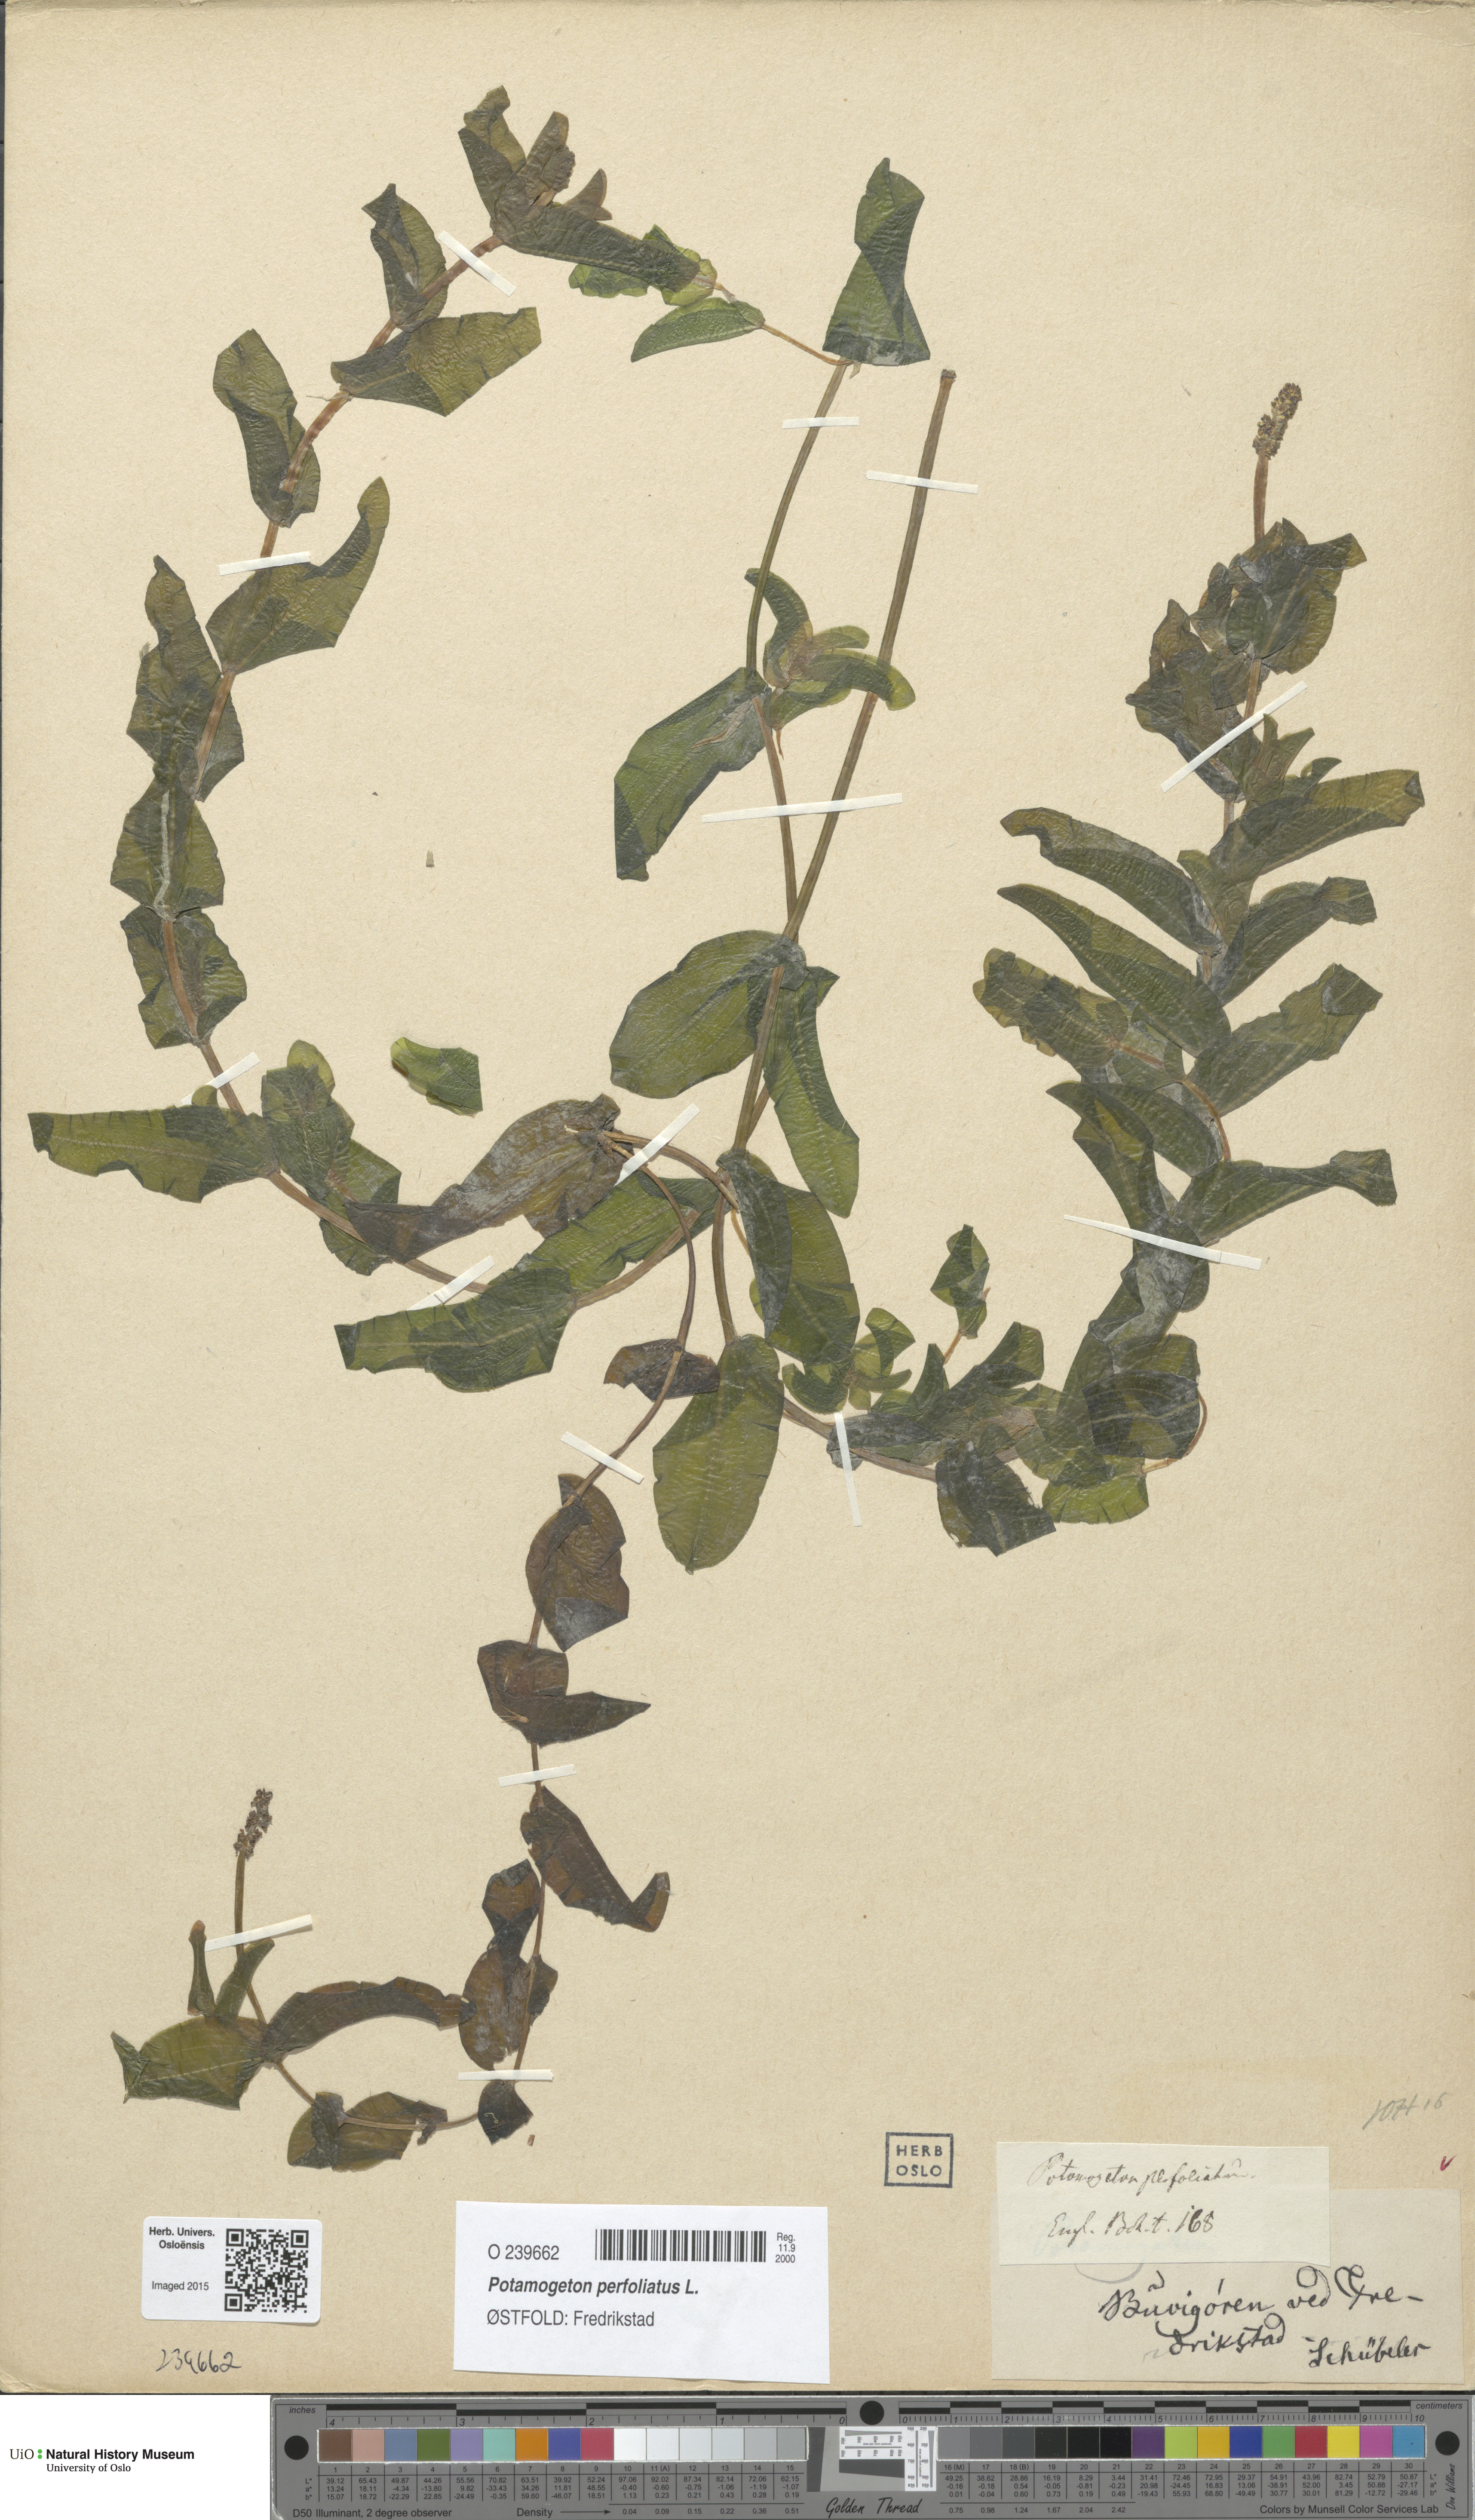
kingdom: Plantae
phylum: Tracheophyta
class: Liliopsida
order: Alismatales
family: Potamogetonaceae
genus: Potamogeton
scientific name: Potamogeton perfoliatus
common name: Perfoliate pondweed
